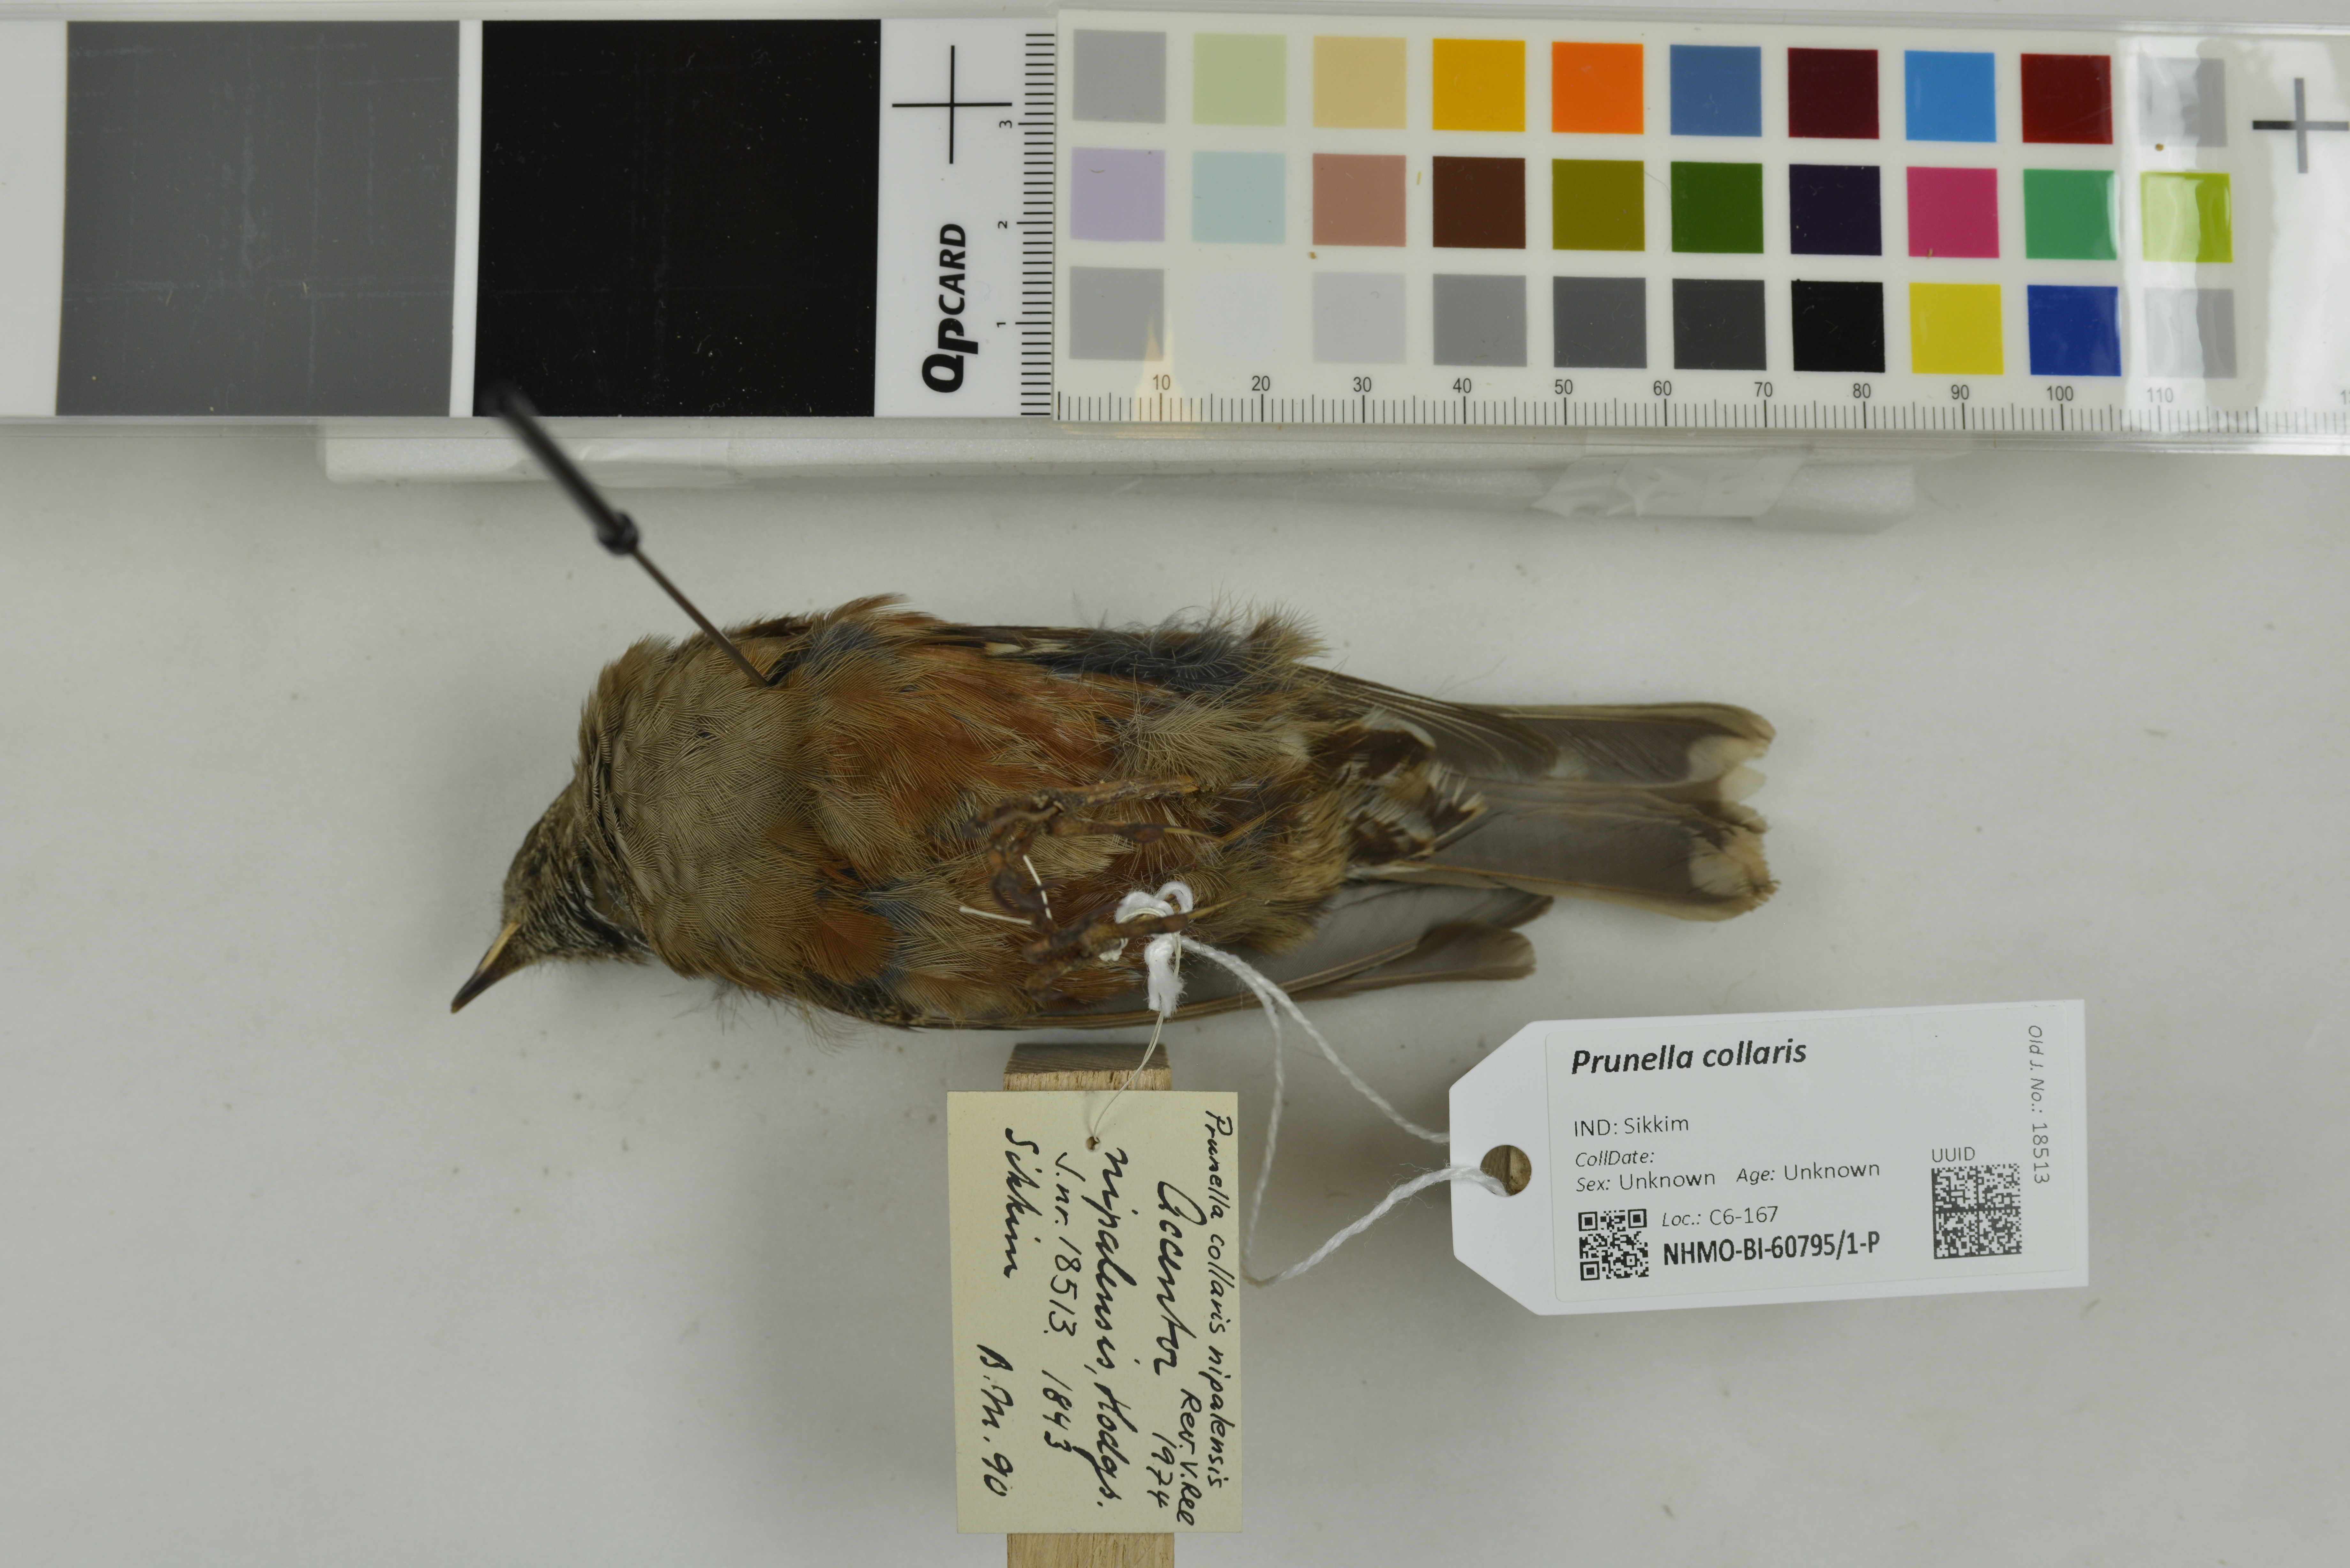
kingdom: Animalia
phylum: Chordata
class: Aves
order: Passeriformes
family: Prunellidae
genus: Prunella
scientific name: Prunella collaris
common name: Alpine accentor
